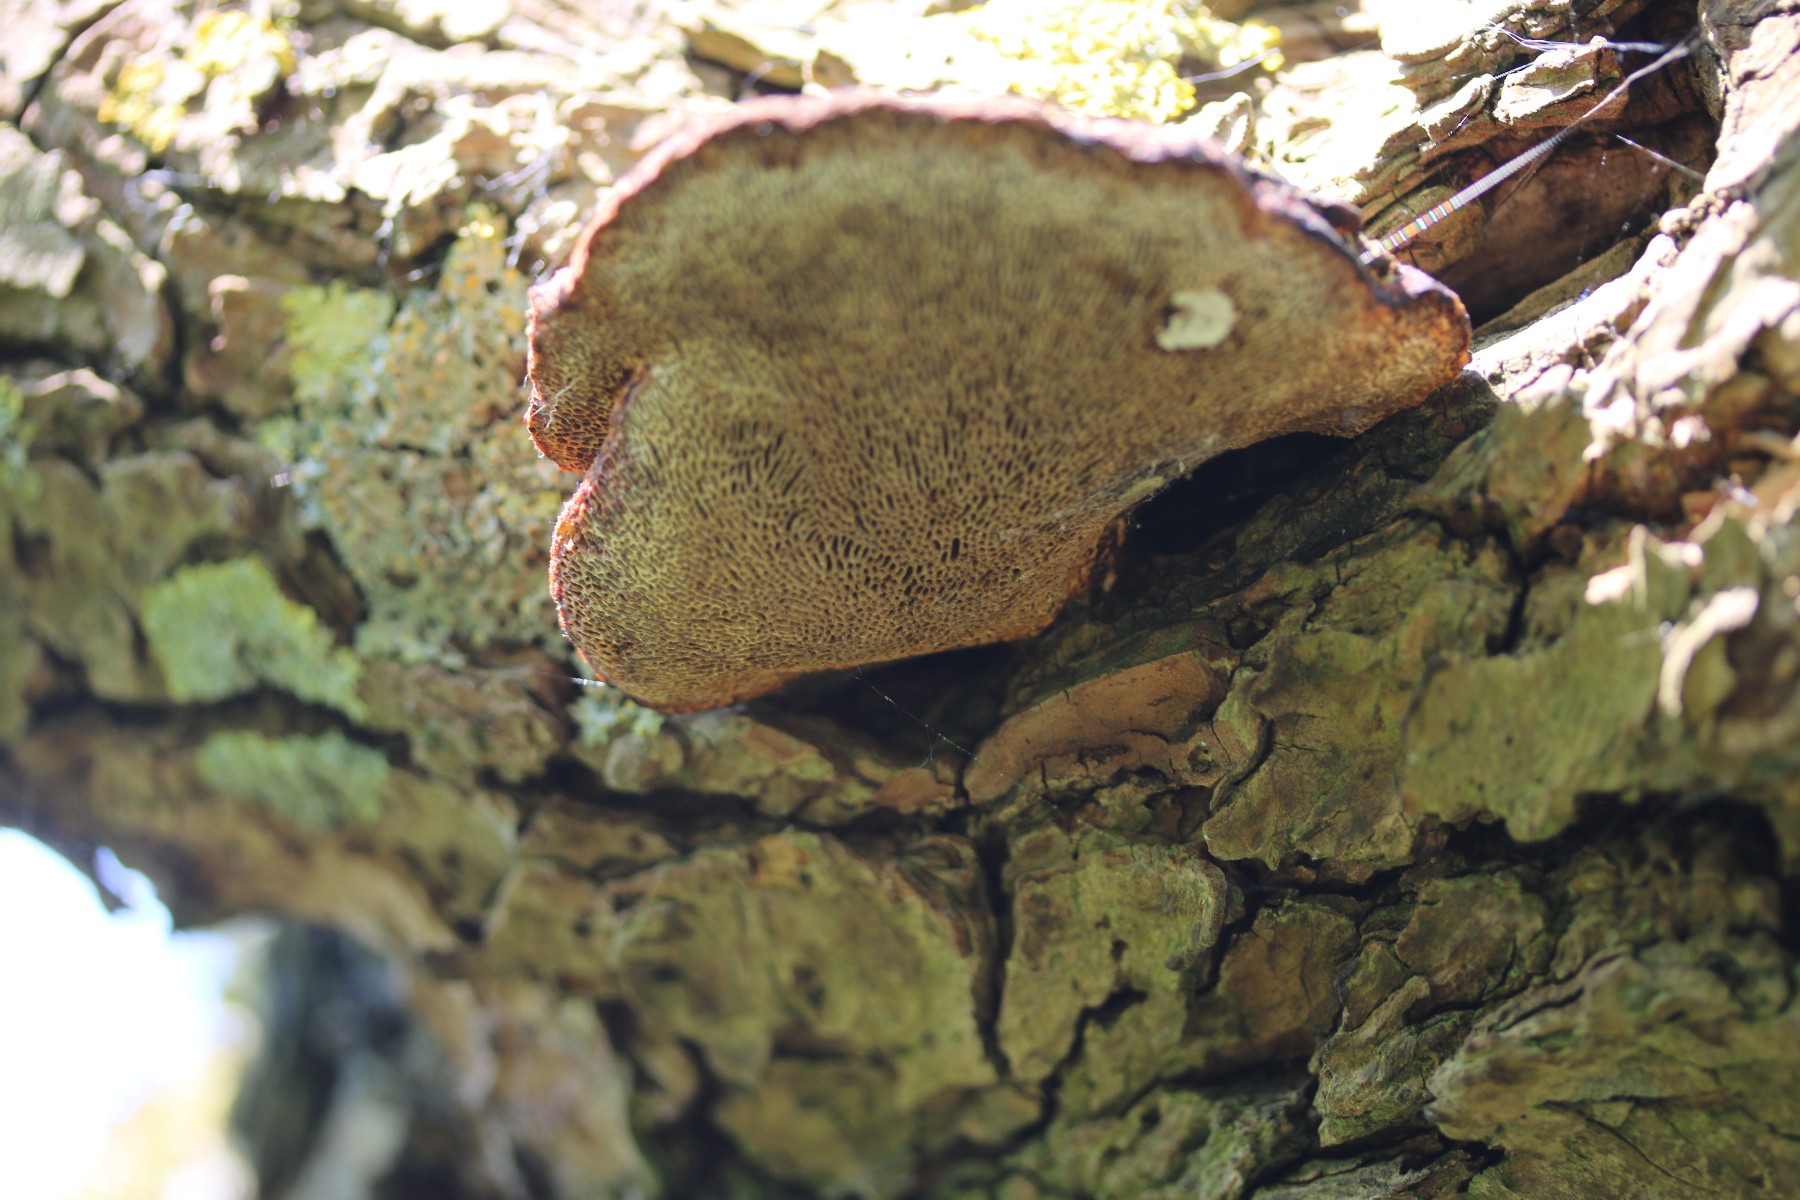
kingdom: Fungi
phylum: Basidiomycota
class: Agaricomycetes
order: Polyporales
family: Polyporaceae
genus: Daedaleopsis
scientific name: Daedaleopsis confragosa
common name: rødmende læderporesvamp
